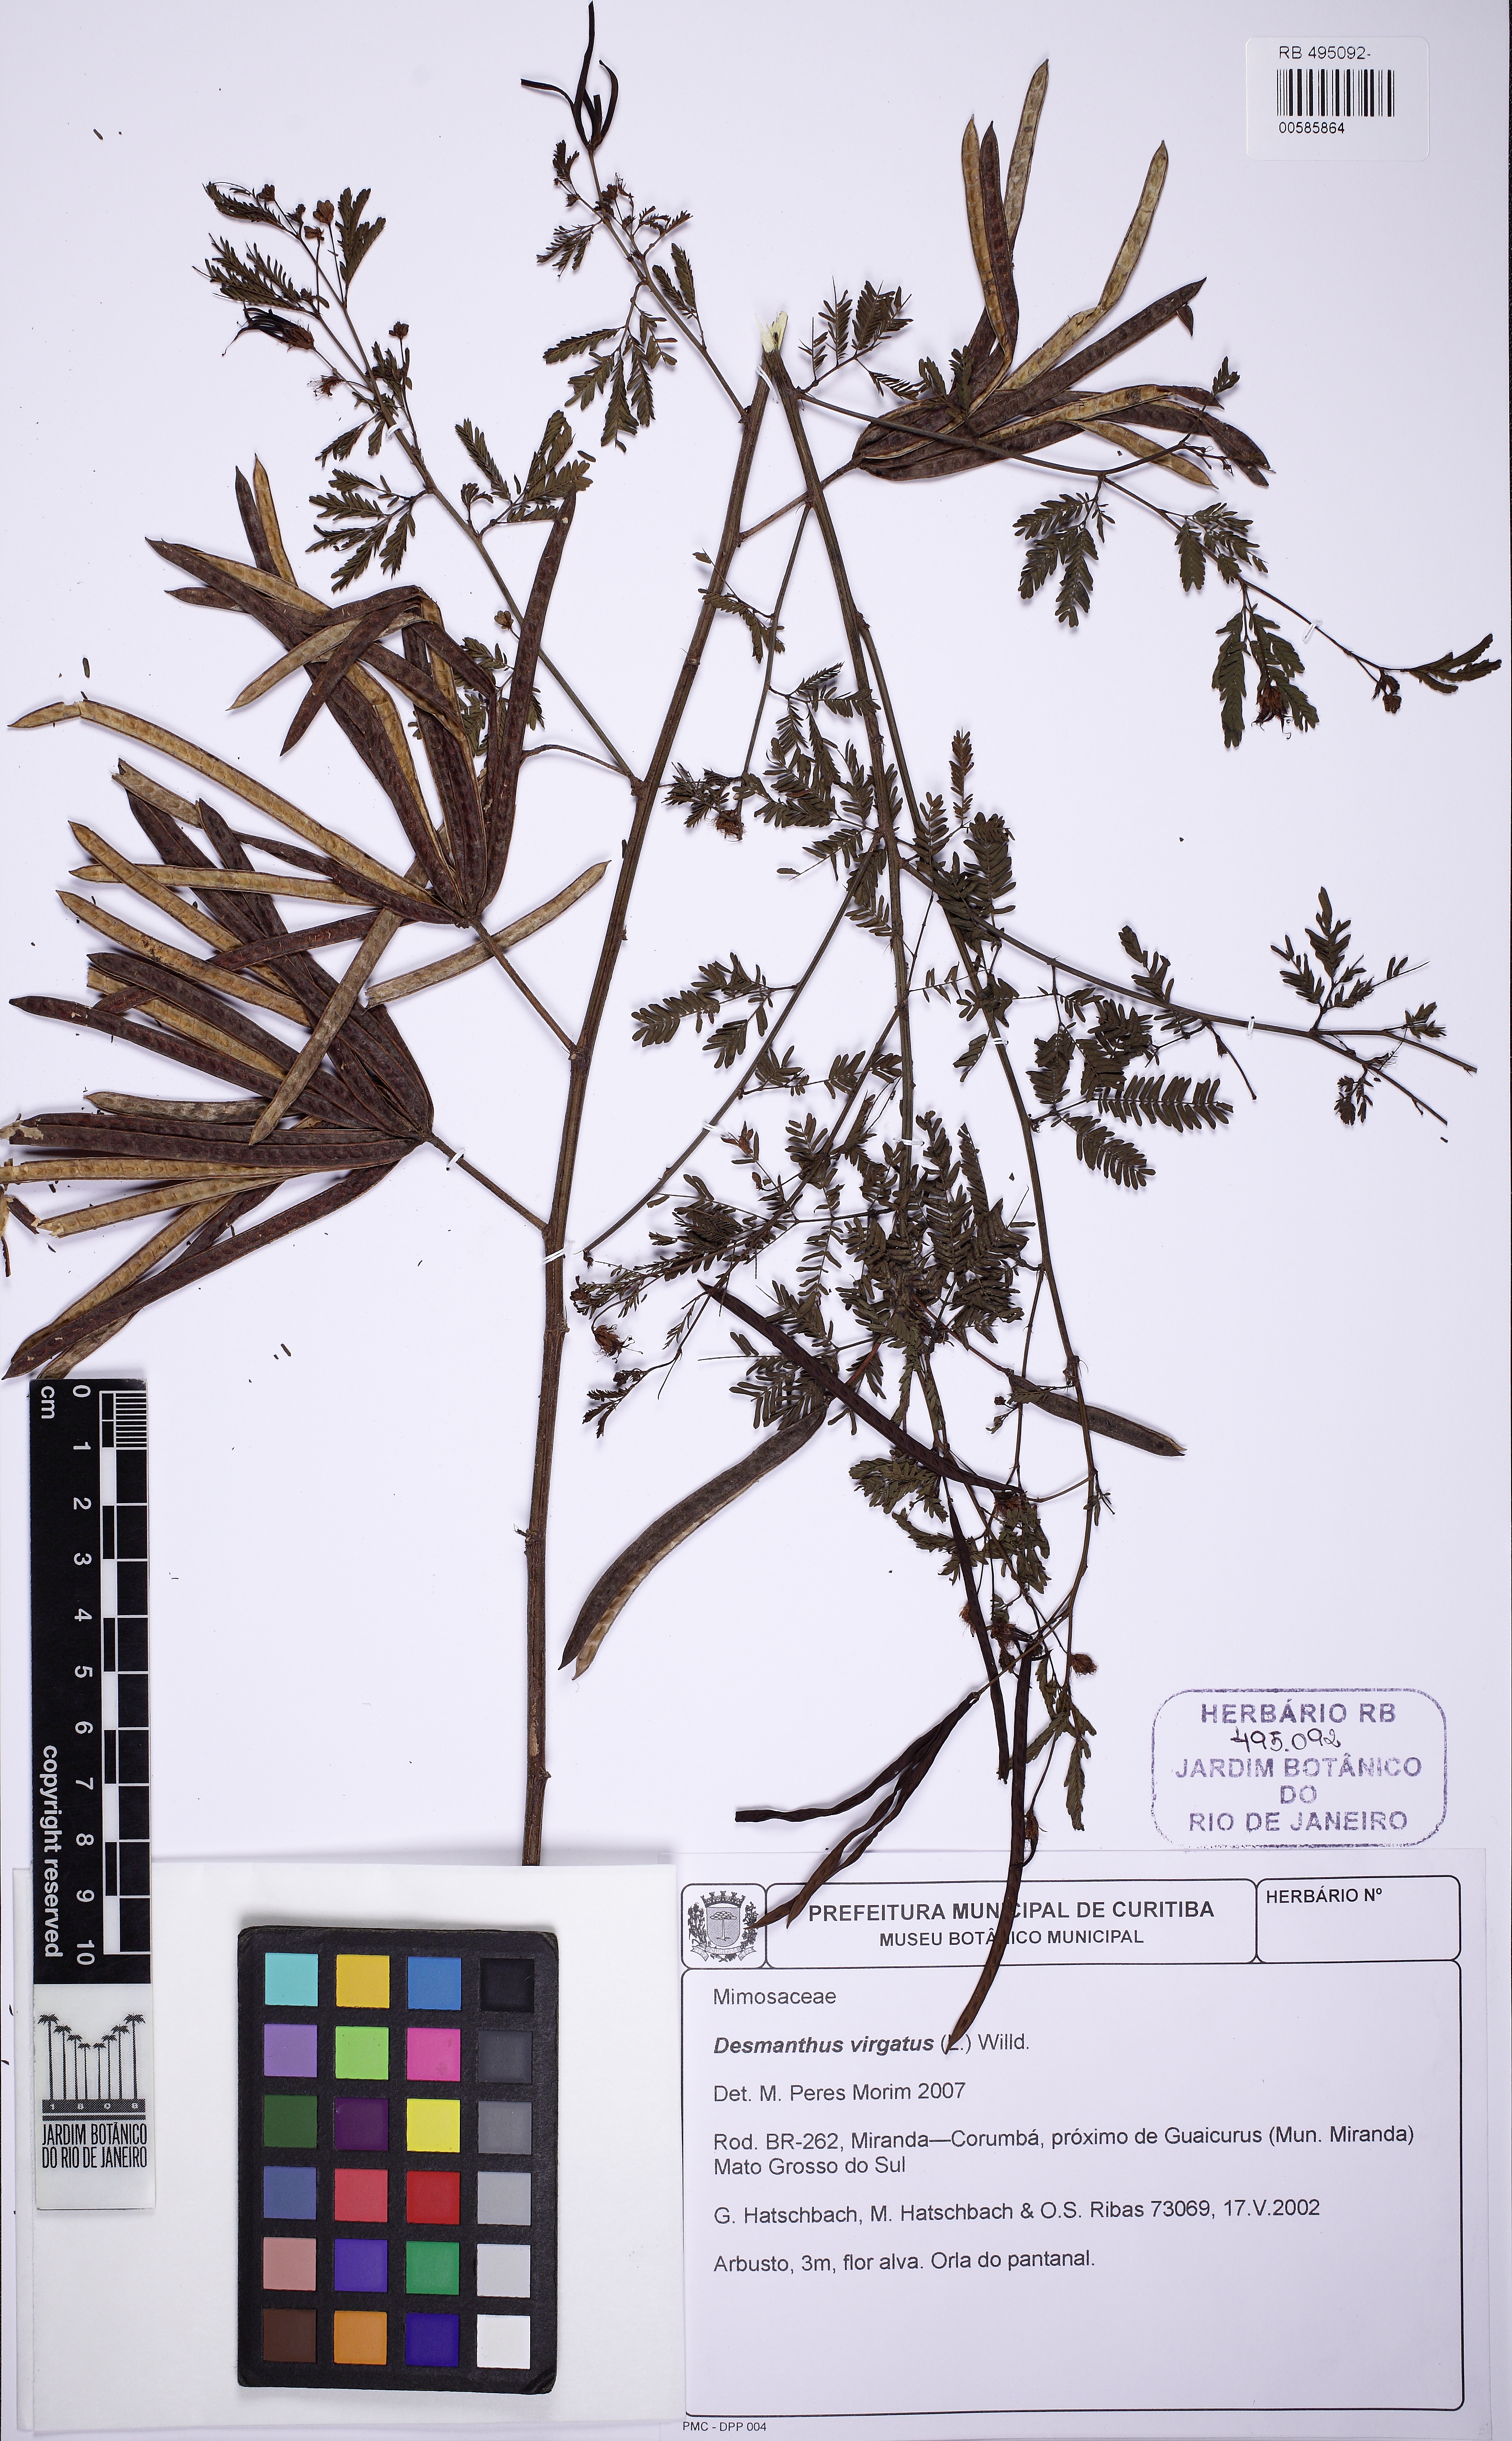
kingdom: Plantae
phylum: Tracheophyta
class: Magnoliopsida
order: Fabales
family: Fabaceae
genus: Desmanthus
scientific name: Desmanthus virgatus
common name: Wild tantan
